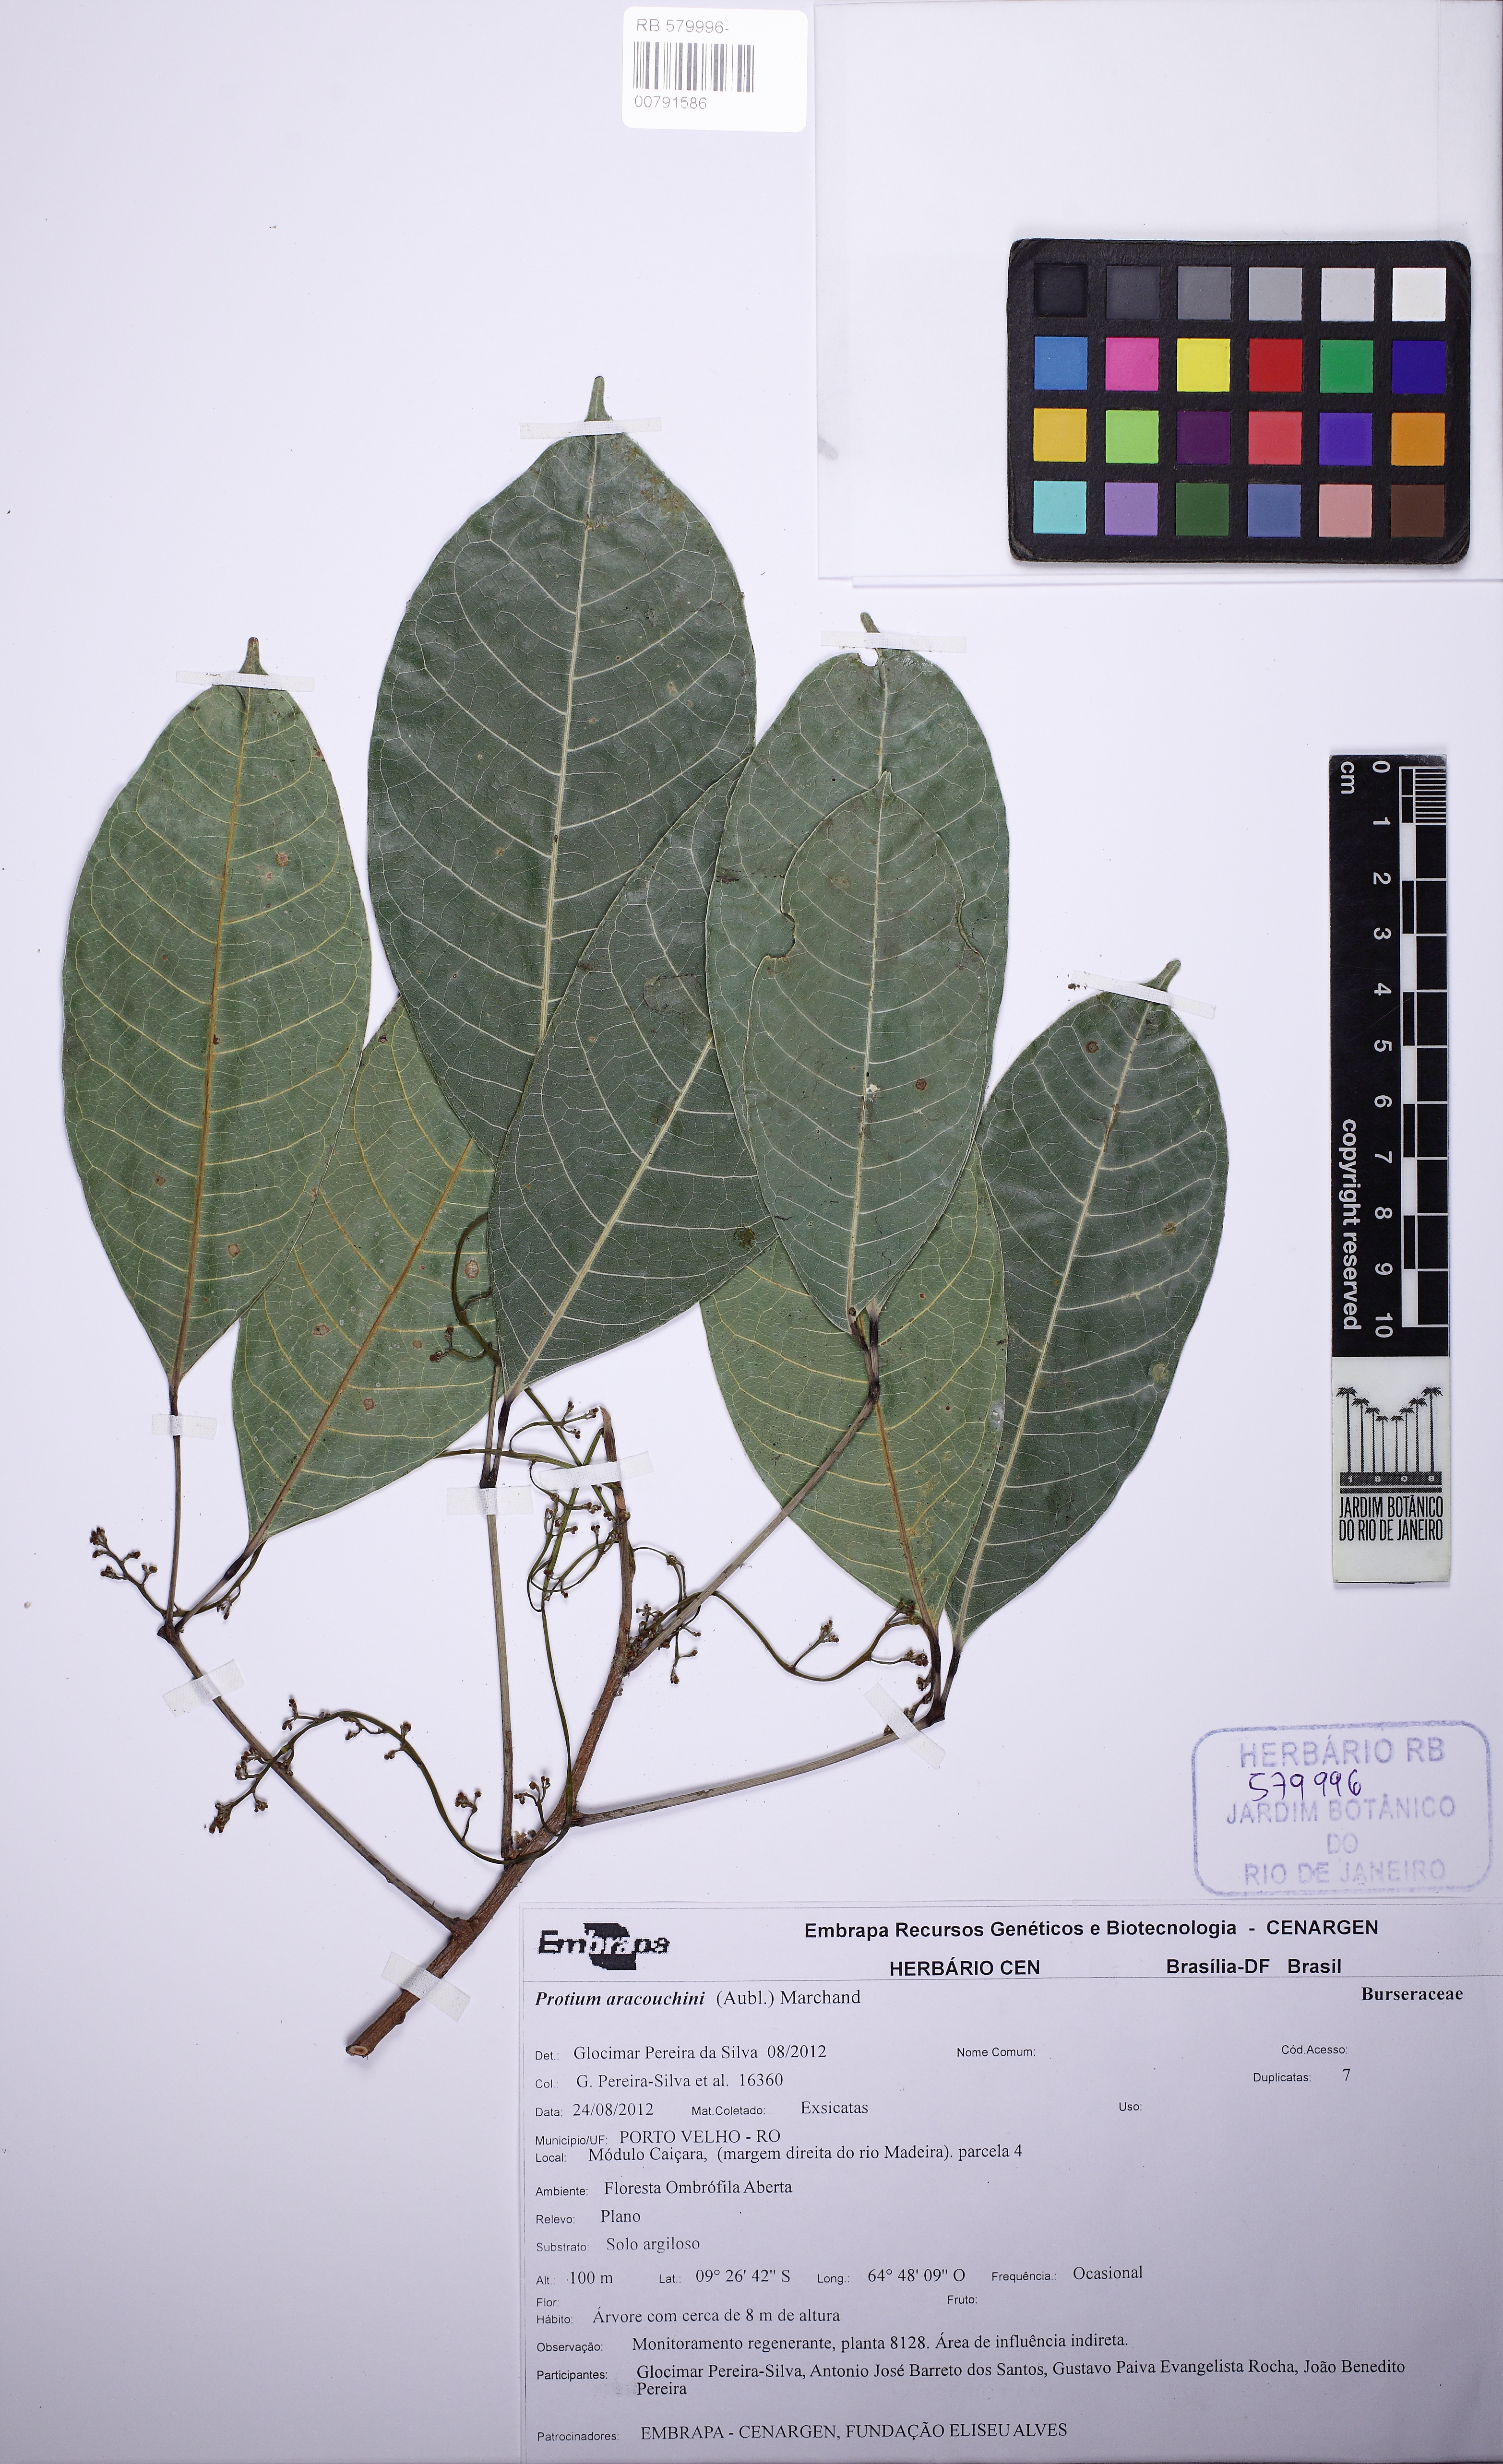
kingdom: Plantae
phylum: Tracheophyta
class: Magnoliopsida
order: Sapindales
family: Burseraceae
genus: Protium
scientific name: Protium aracouchini
